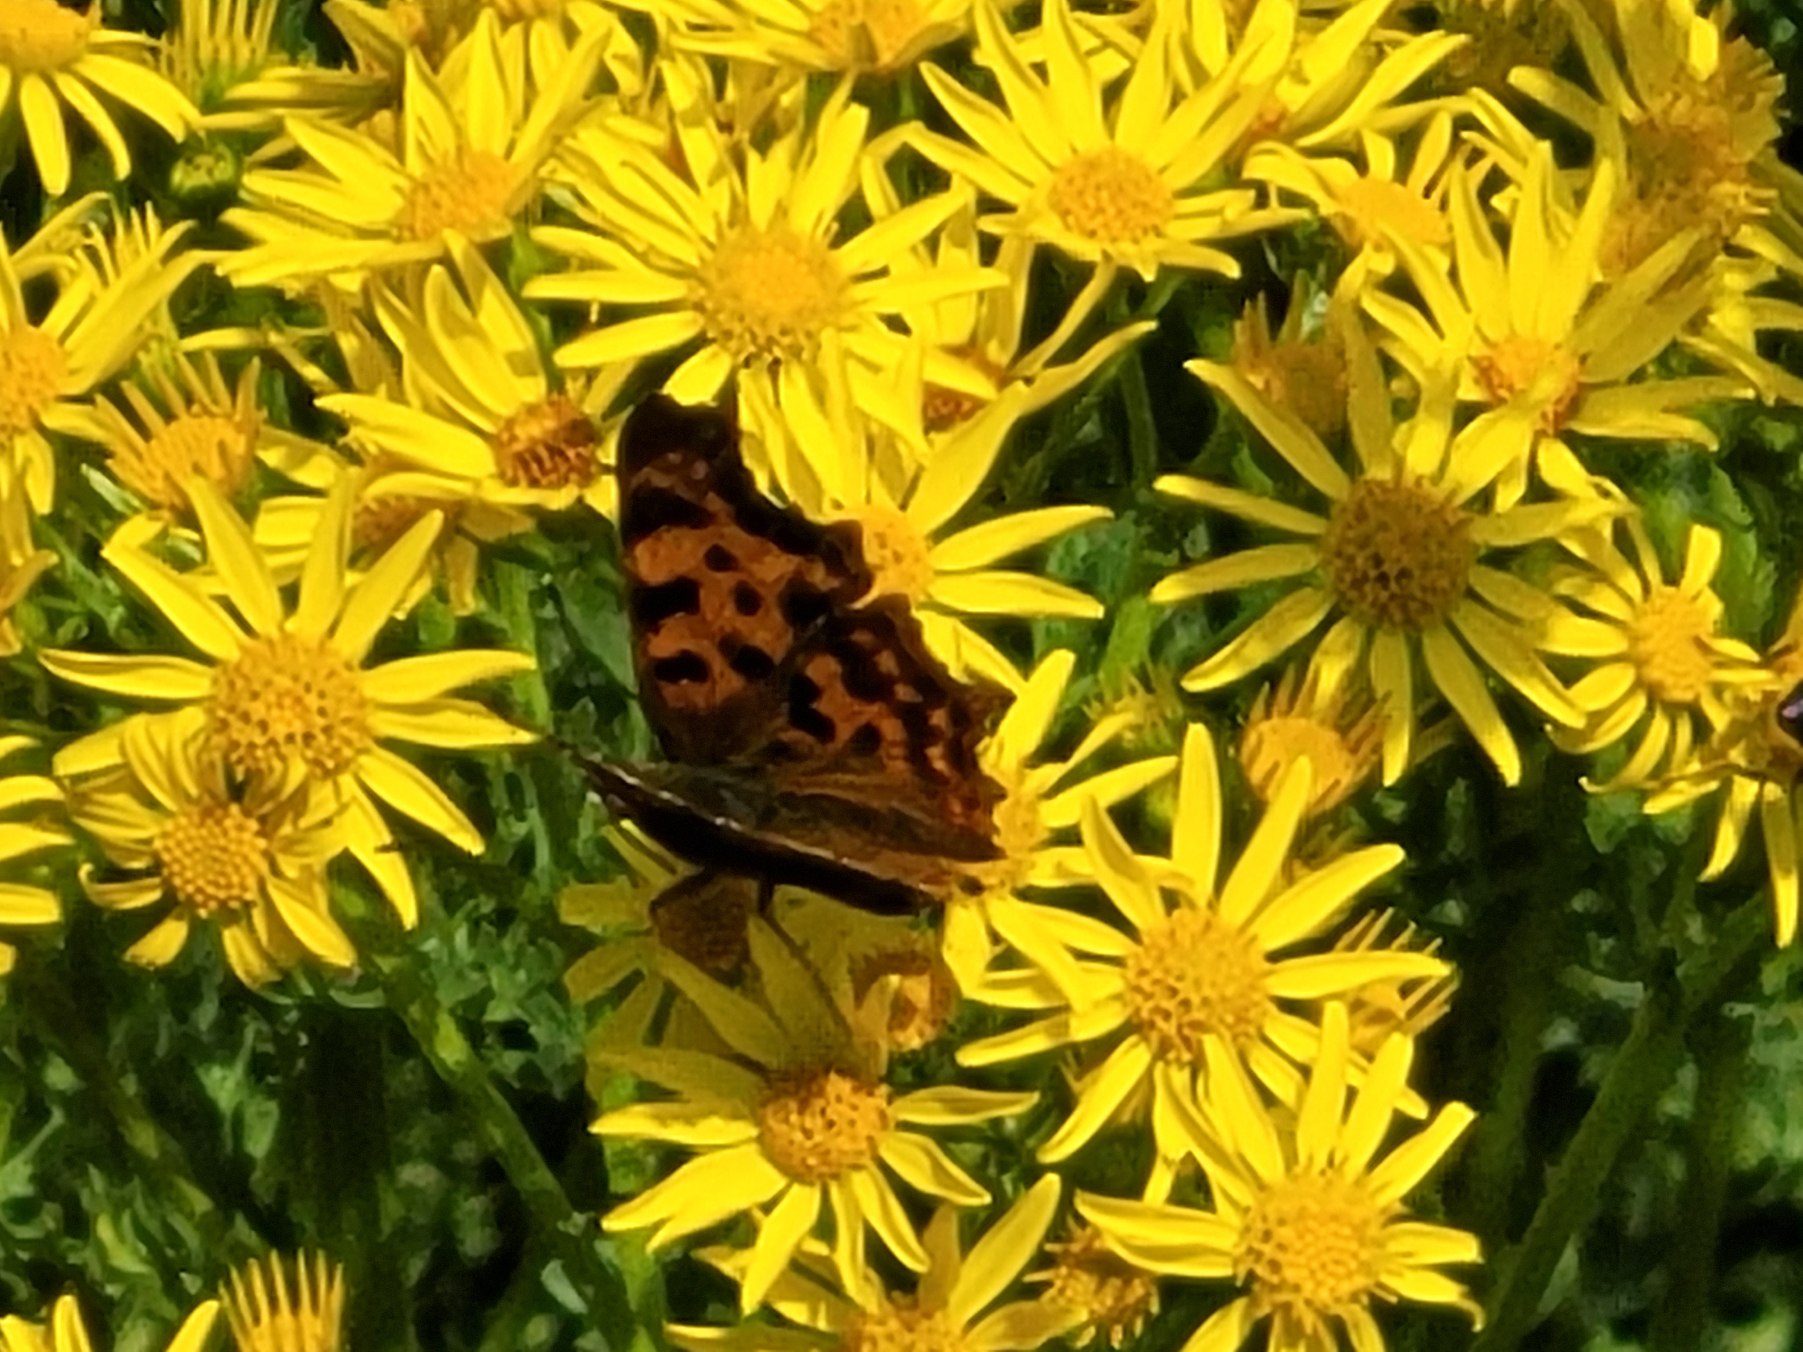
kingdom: Animalia
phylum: Arthropoda
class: Insecta
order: Lepidoptera
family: Nymphalidae
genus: Polygonia
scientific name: Polygonia c-album
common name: Det hvide C
